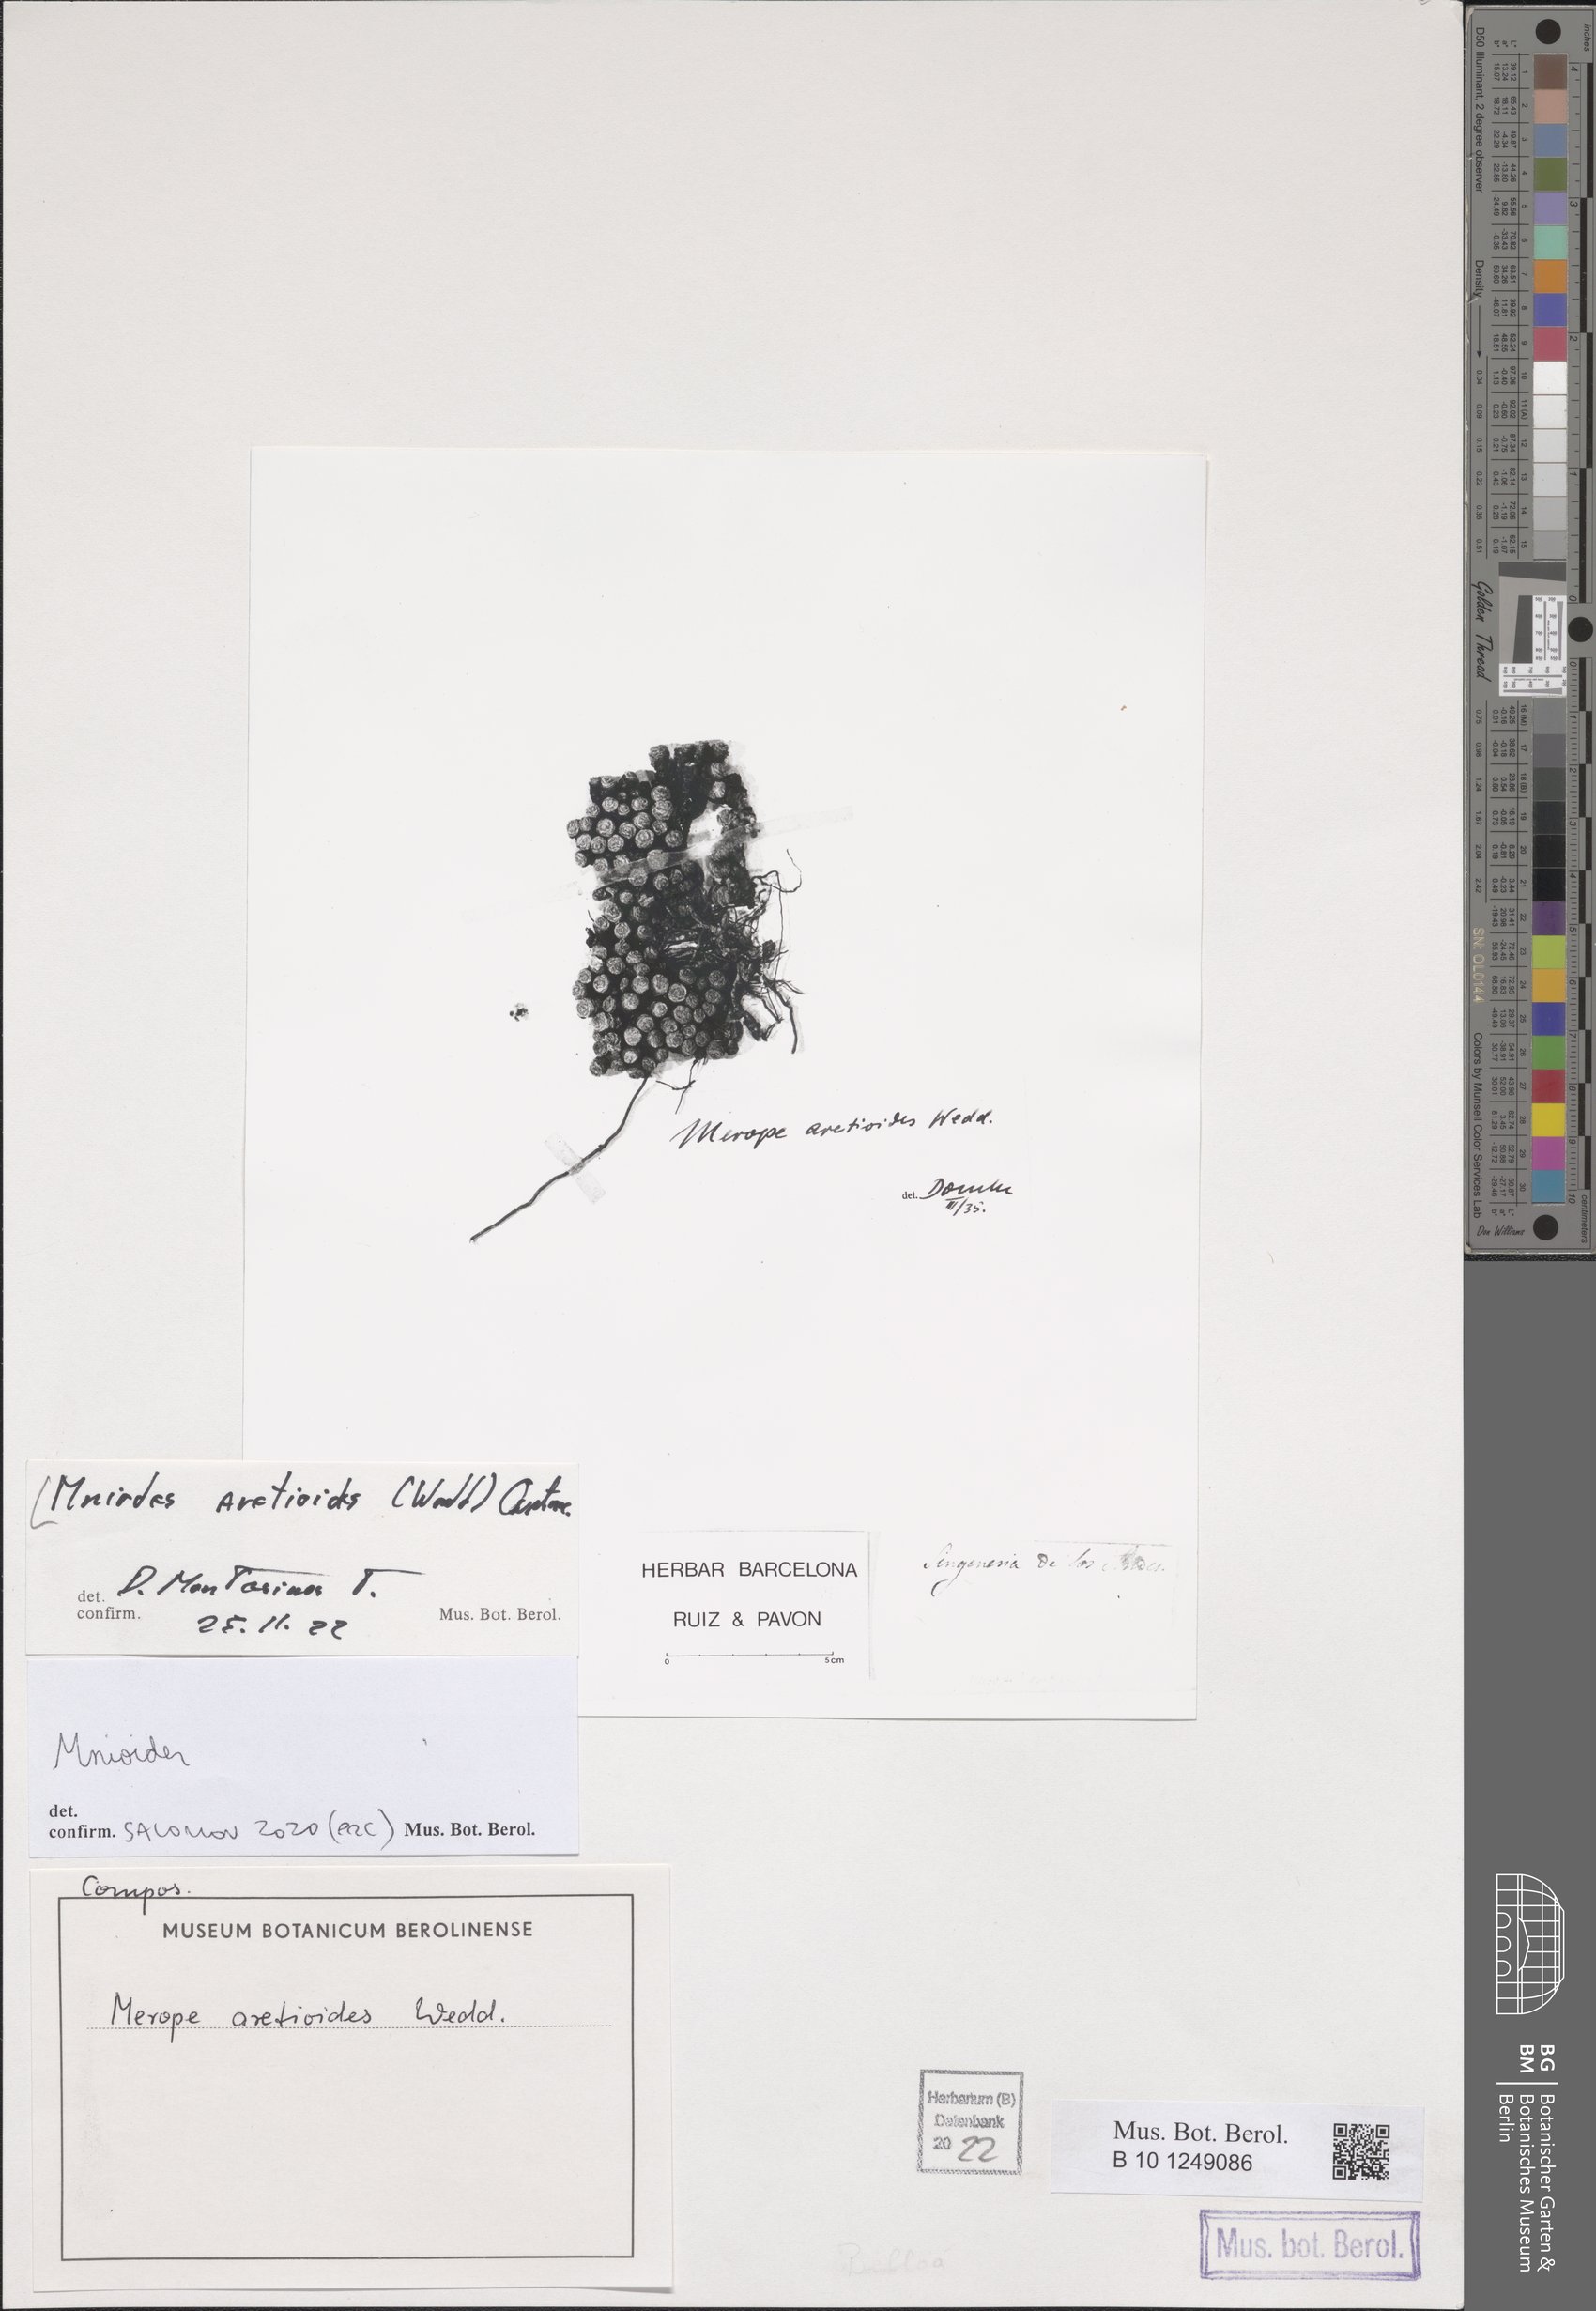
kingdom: Plantae
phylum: Tracheophyta
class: Magnoliopsida
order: Asterales
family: Asteraceae
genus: Mniodes
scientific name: Mniodes aretioides
